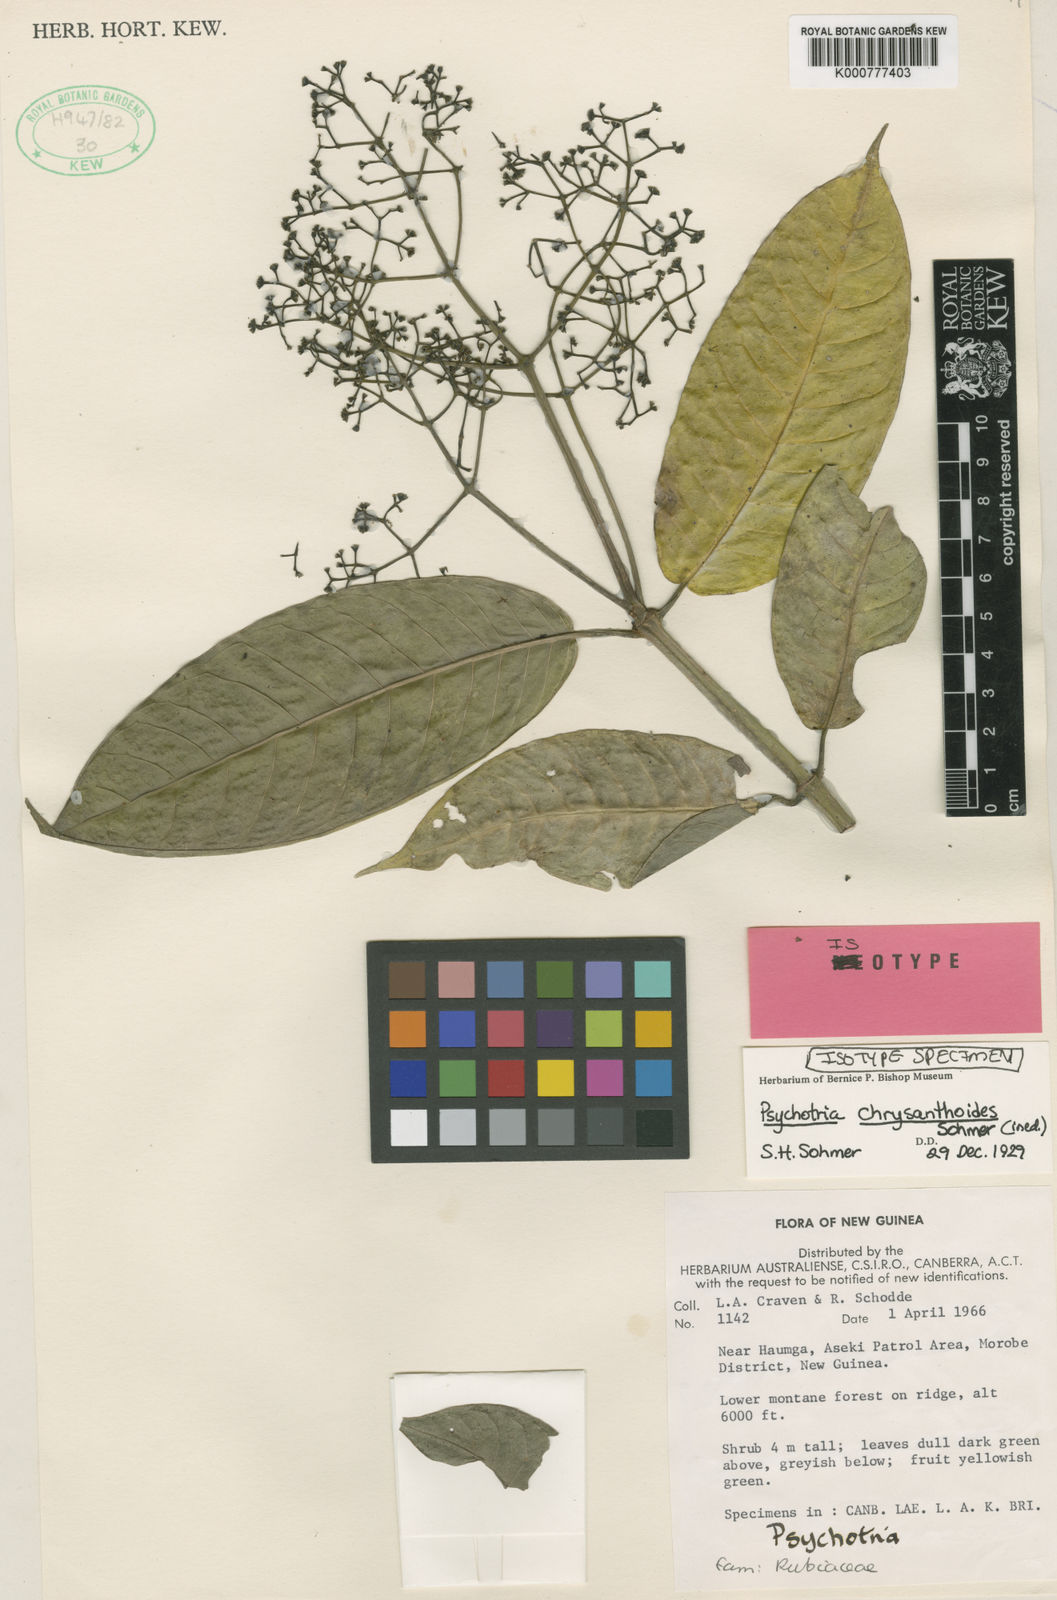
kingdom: Plantae
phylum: Tracheophyta
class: Magnoliopsida
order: Gentianales
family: Rubiaceae
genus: Psychotria
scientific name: Psychotria chrysanthoides
